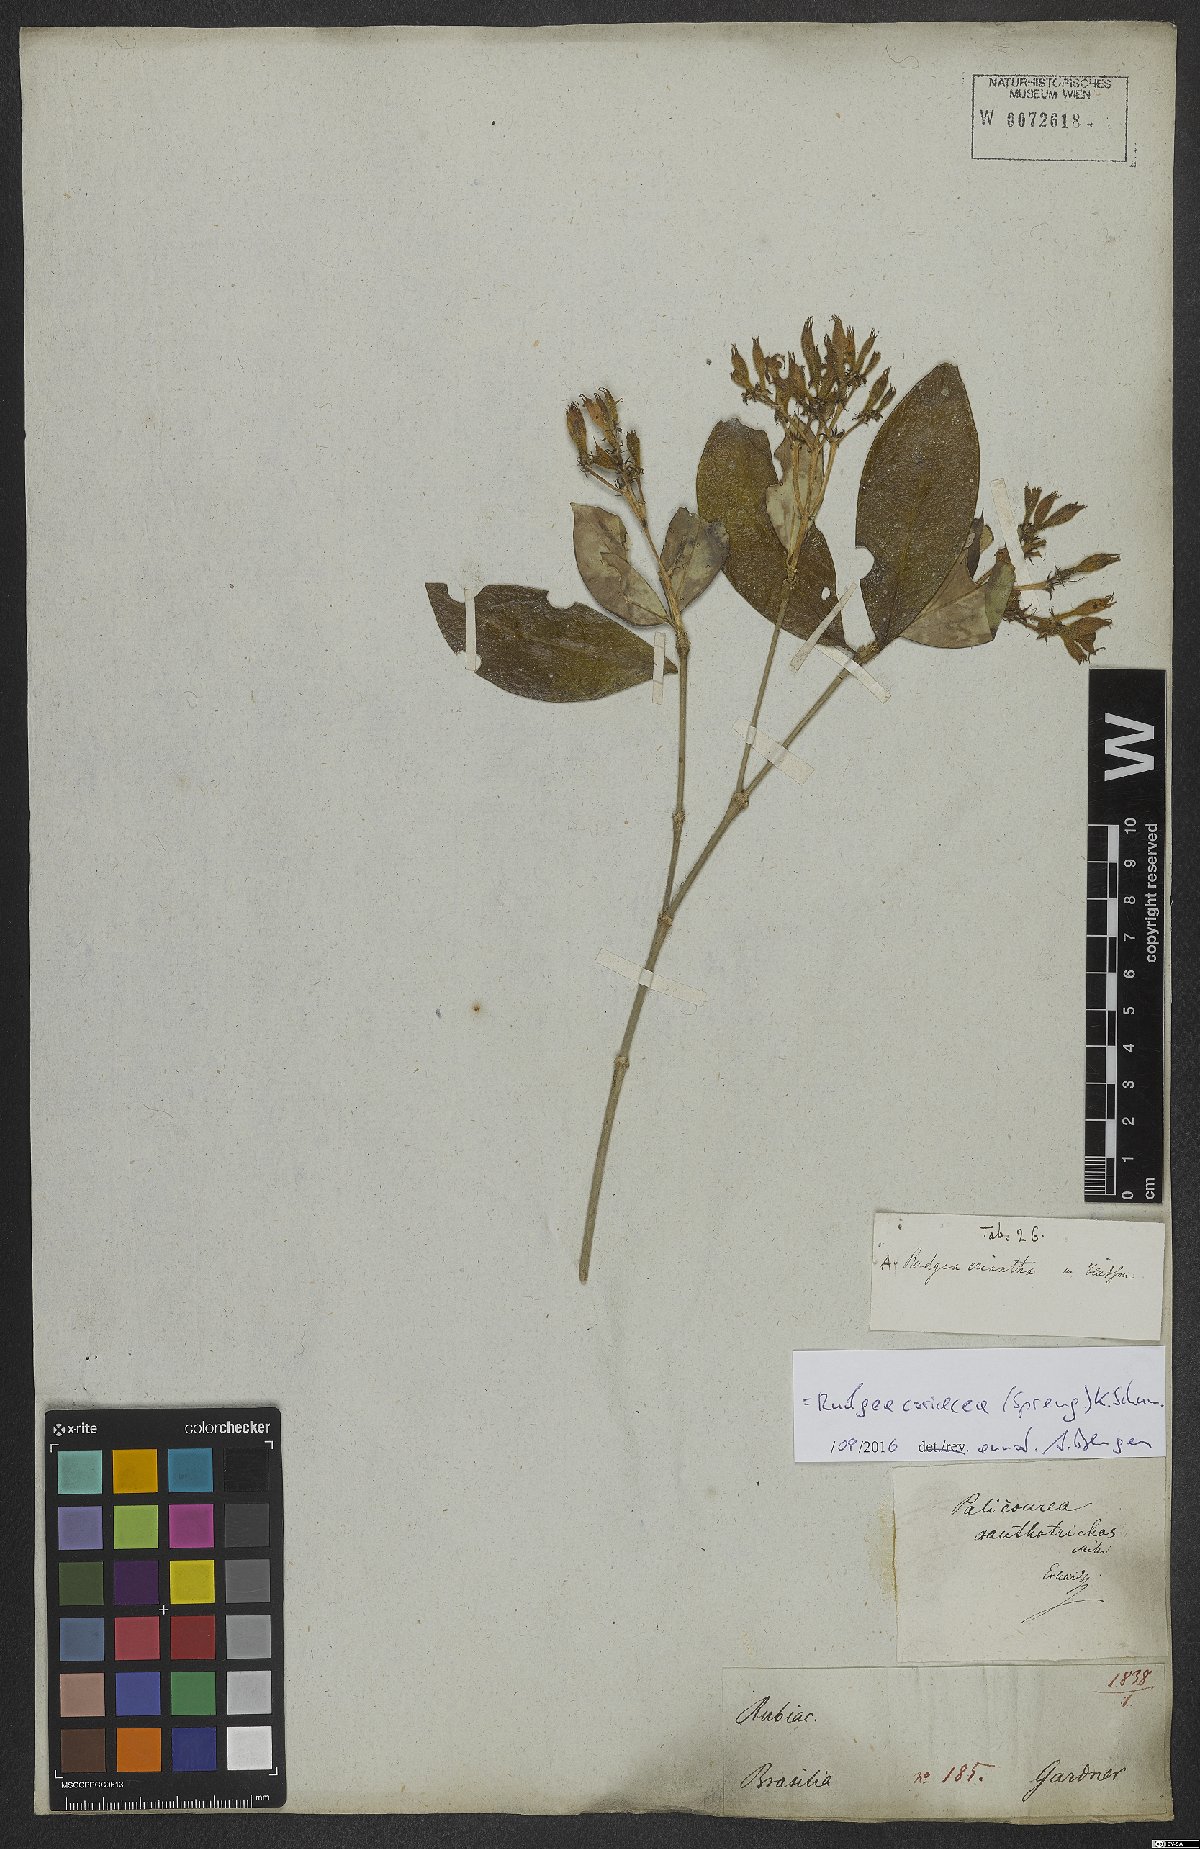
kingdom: Plantae
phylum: Tracheophyta
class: Magnoliopsida
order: Gentianales
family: Rubiaceae
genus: Rudgea
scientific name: Rudgea coriacea
